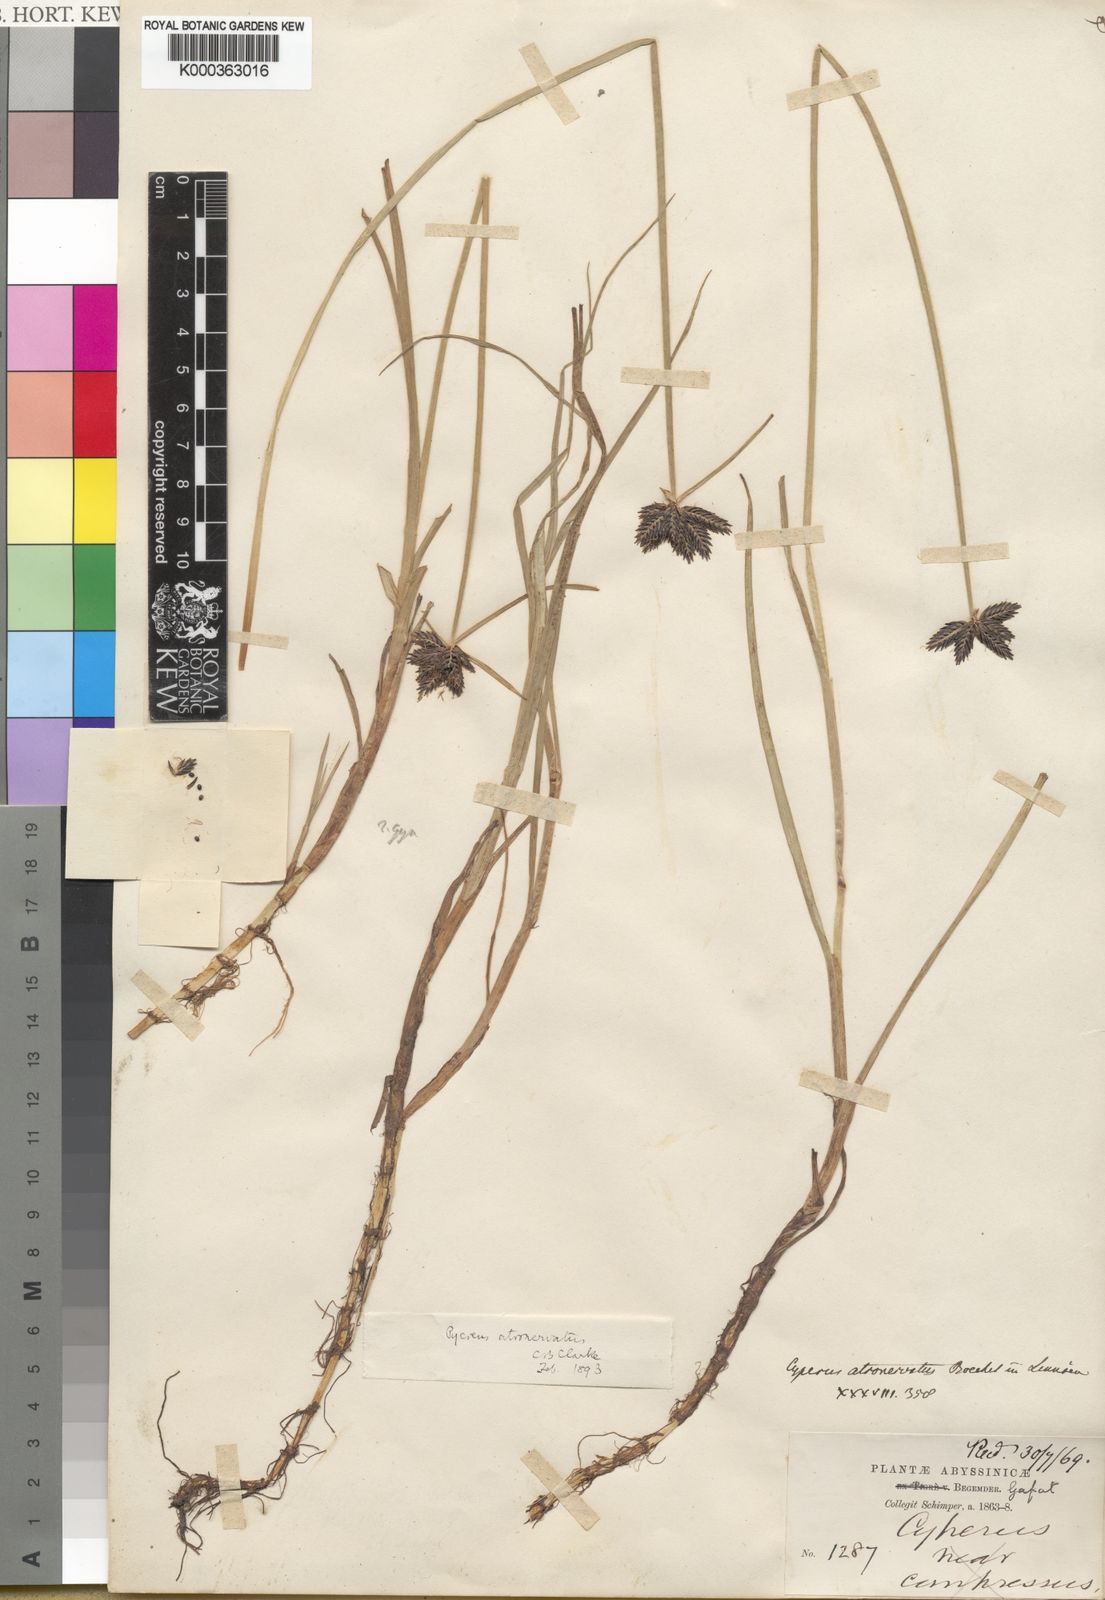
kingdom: Plantae
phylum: Tracheophyta
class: Liliopsida
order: Poales
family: Cyperaceae
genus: Cyperus
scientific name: Cyperus atronervatus
